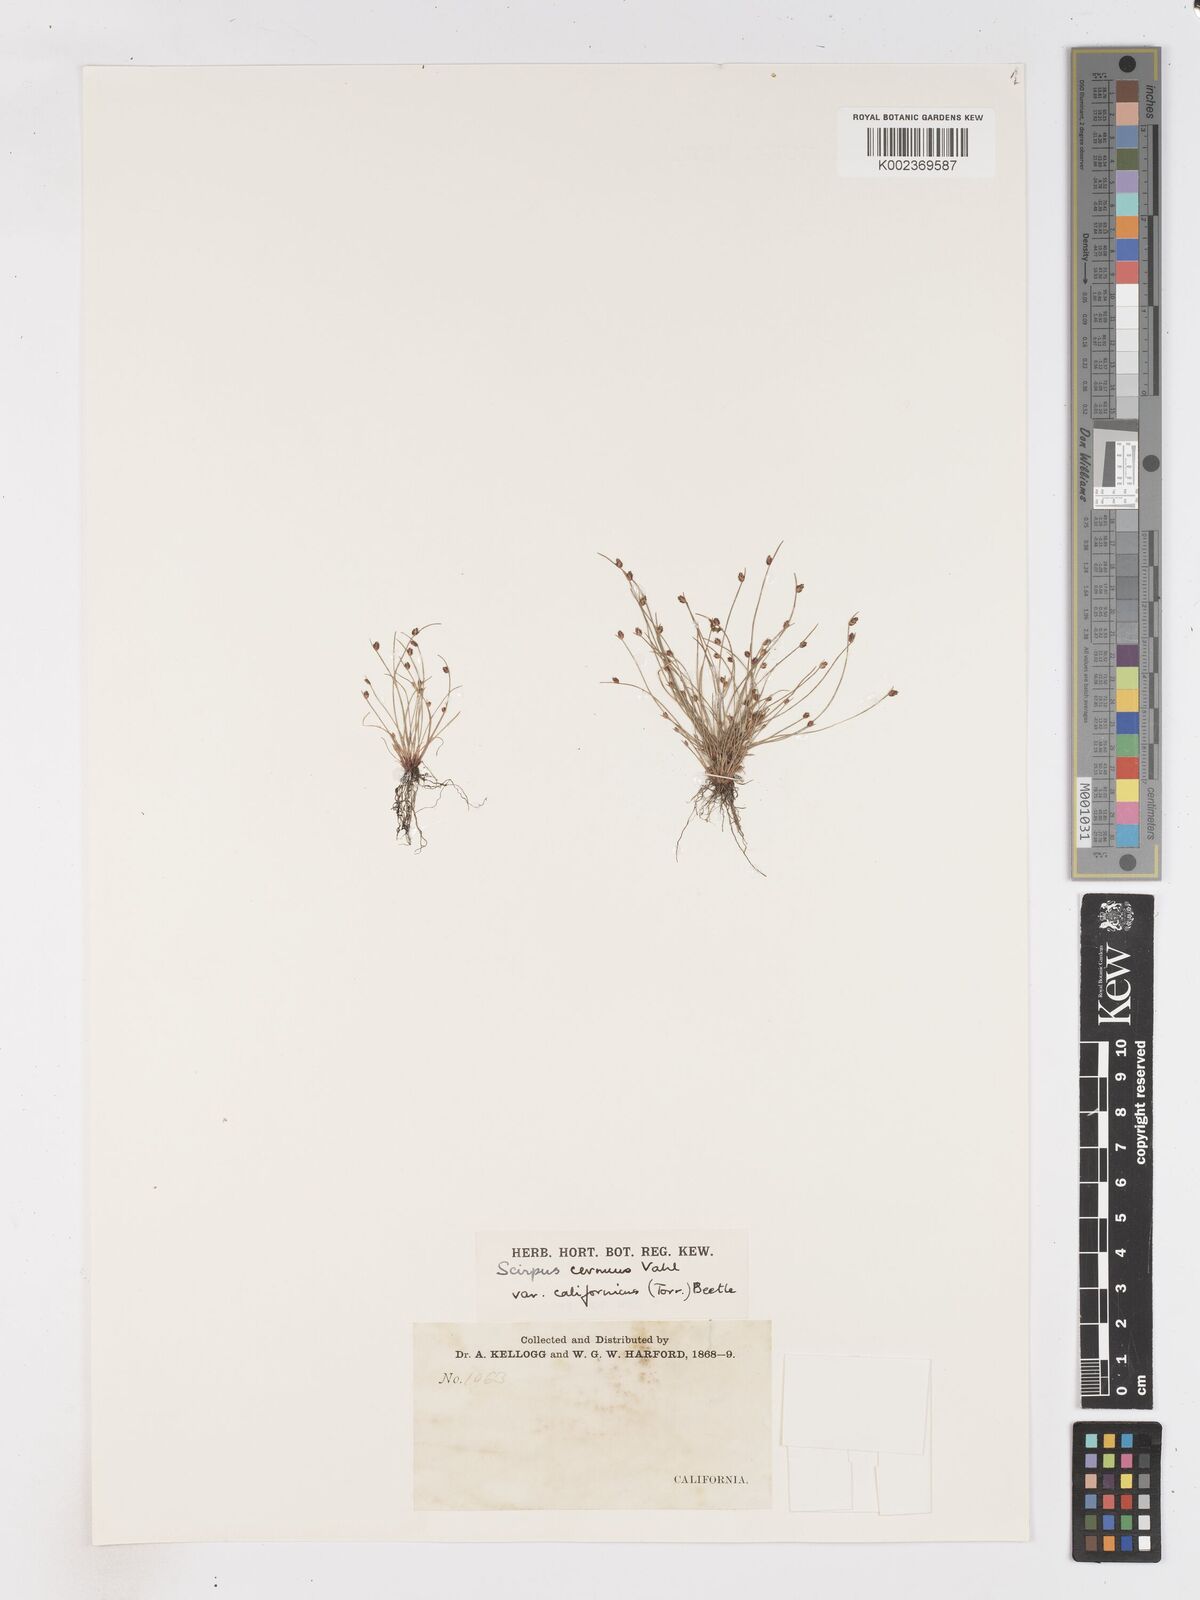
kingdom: Plantae
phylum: Tracheophyta
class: Liliopsida
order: Poales
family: Cyperaceae
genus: Isolepis
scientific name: Isolepis cernua
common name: Slender club-rush
